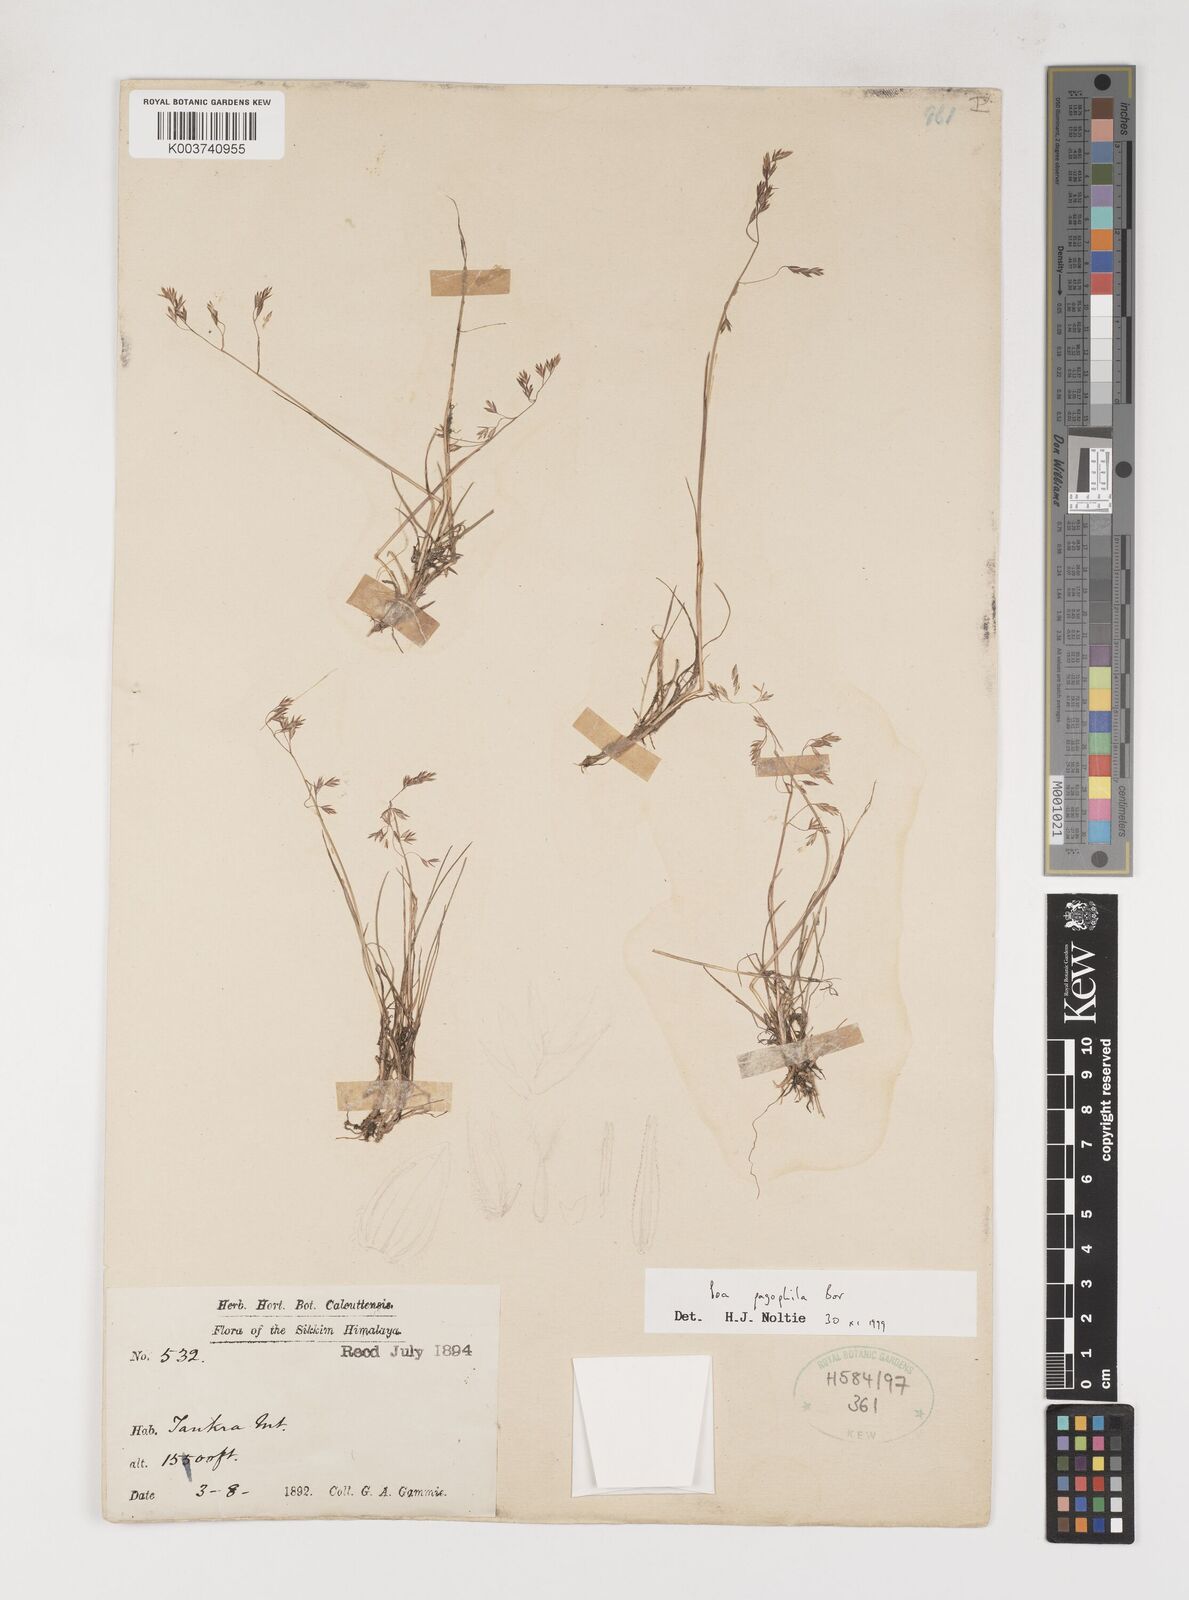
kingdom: Plantae
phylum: Tracheophyta
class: Liliopsida
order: Poales
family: Poaceae
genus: Poa
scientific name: Poa pagophila
